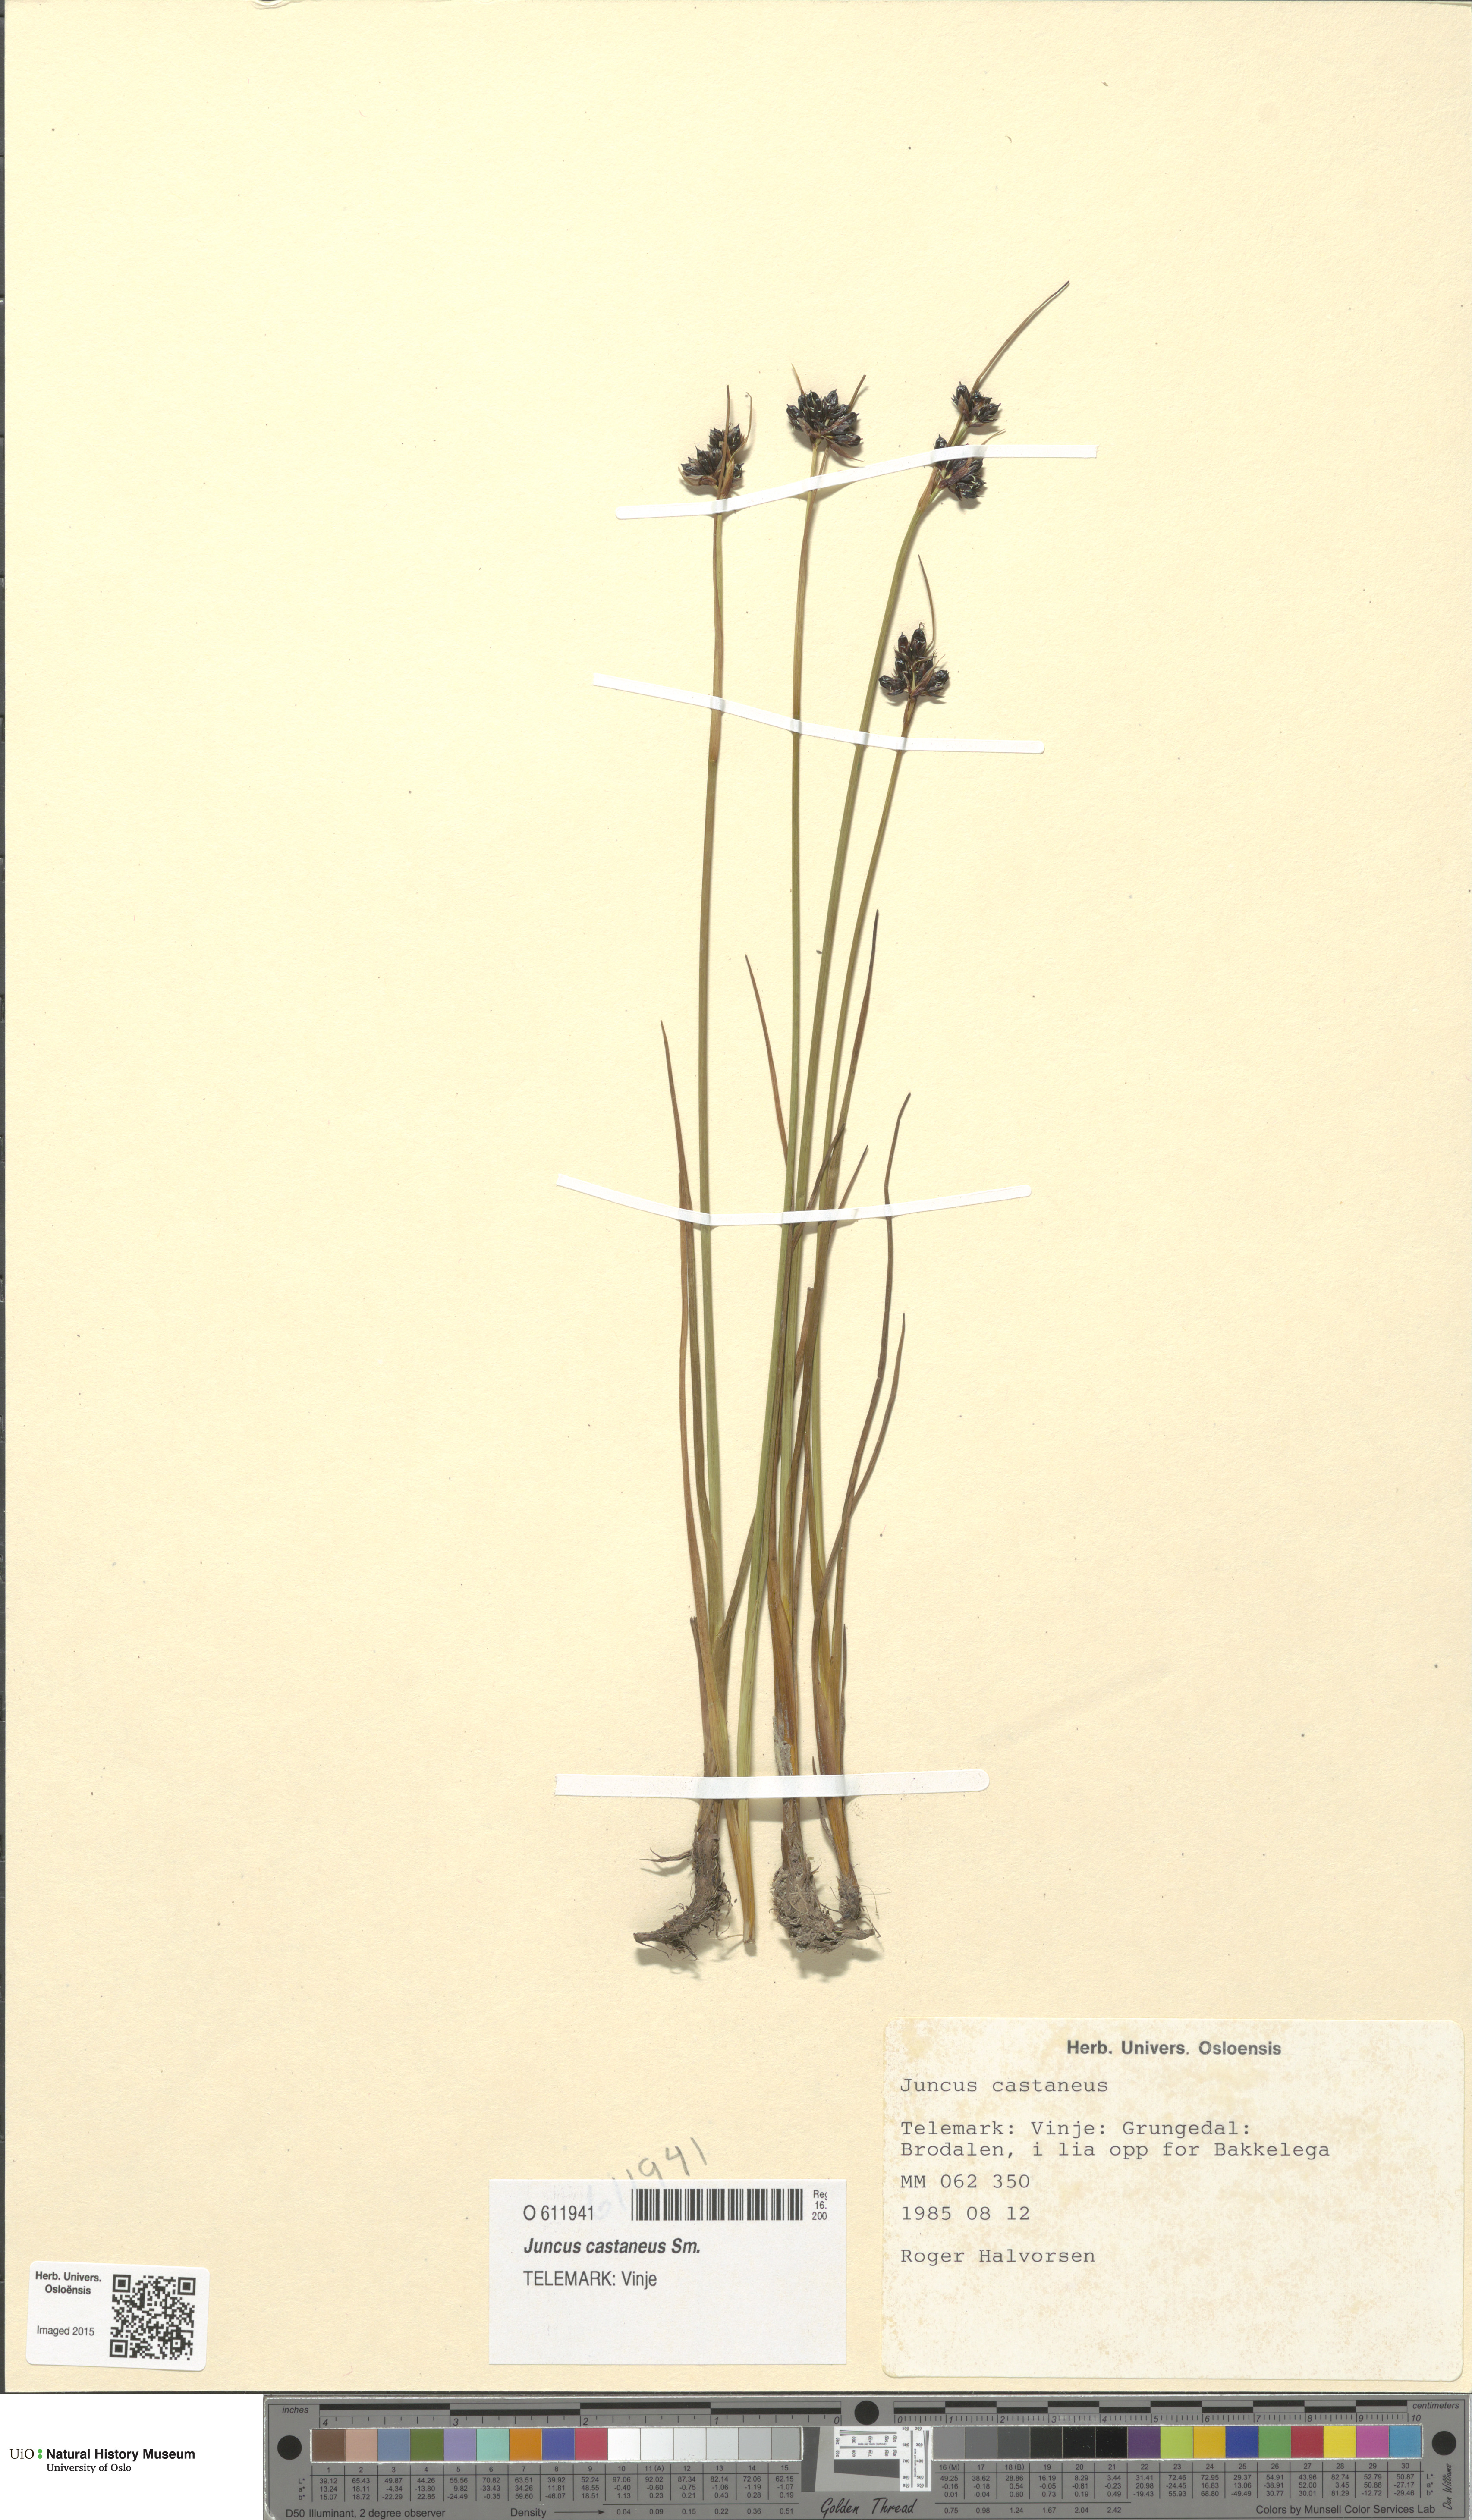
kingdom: Plantae
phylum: Tracheophyta
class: Liliopsida
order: Poales
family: Juncaceae
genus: Juncus
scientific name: Juncus castaneus
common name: Chestnut rush
